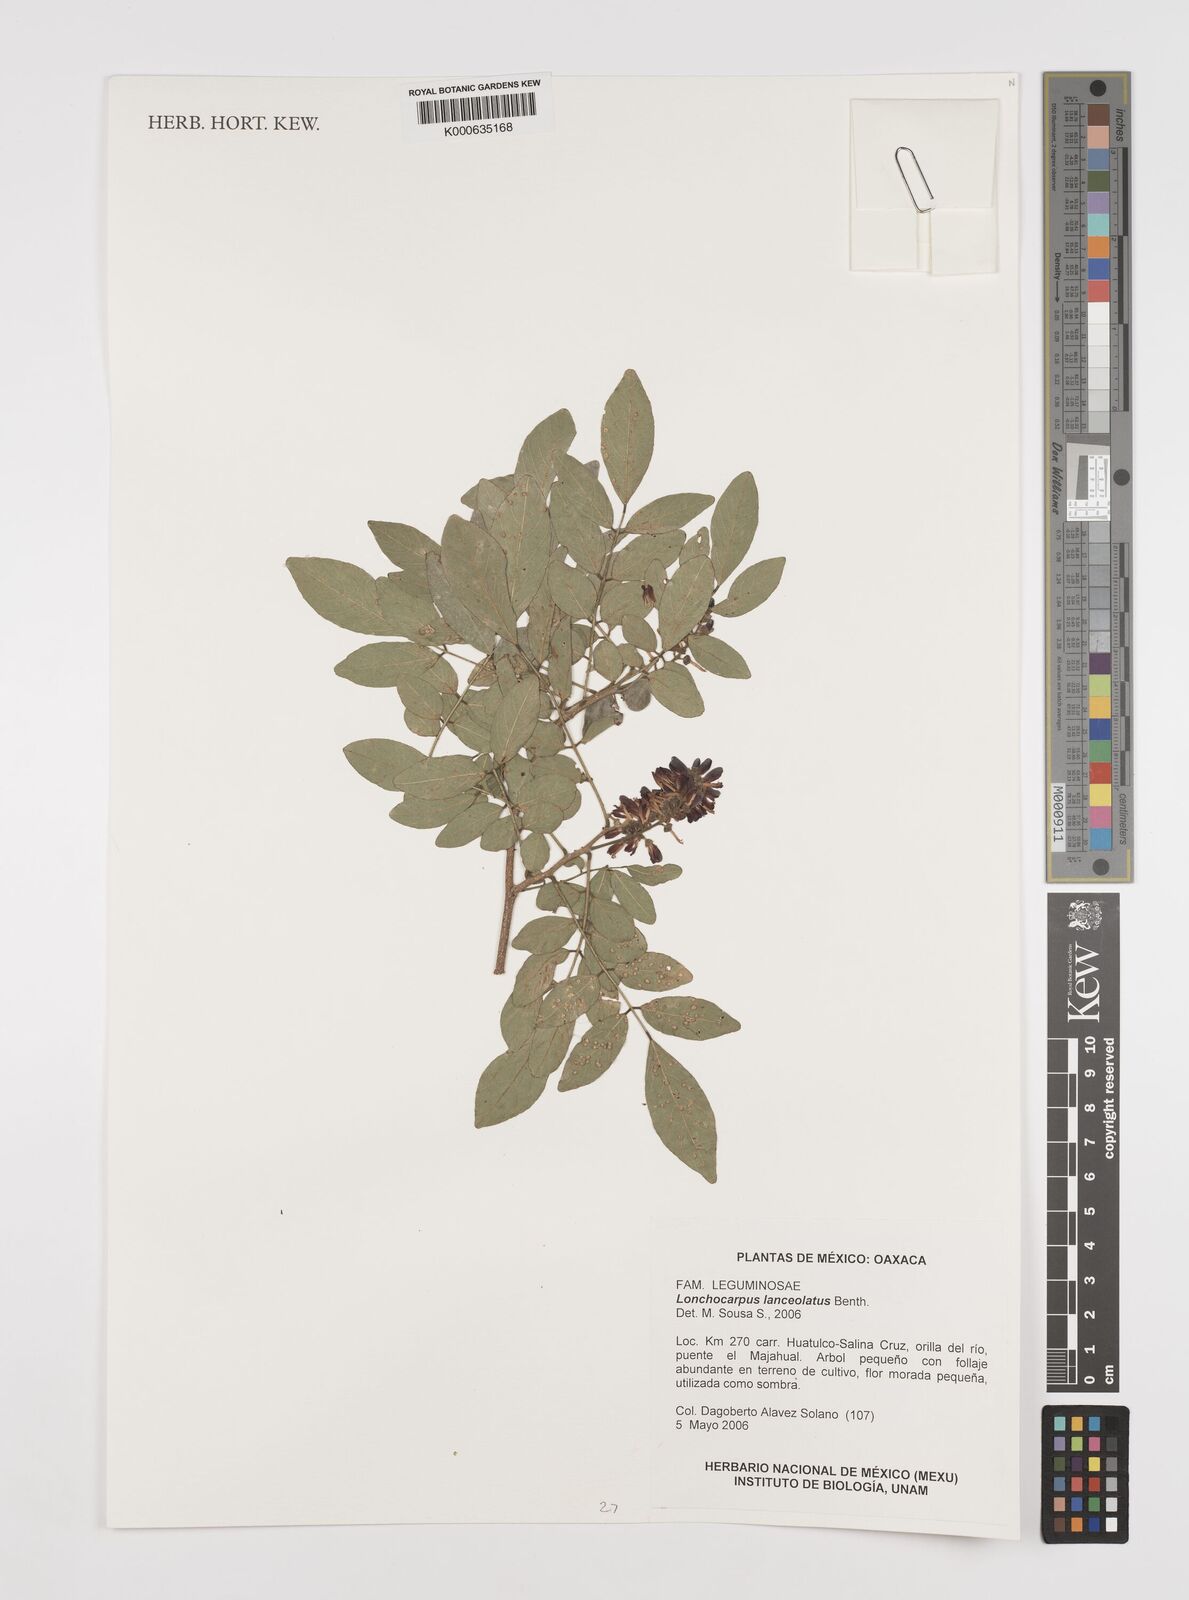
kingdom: Plantae
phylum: Tracheophyta
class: Magnoliopsida
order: Fabales
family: Fabaceae
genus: Lonchocarpus
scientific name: Lonchocarpus lanceolatus
